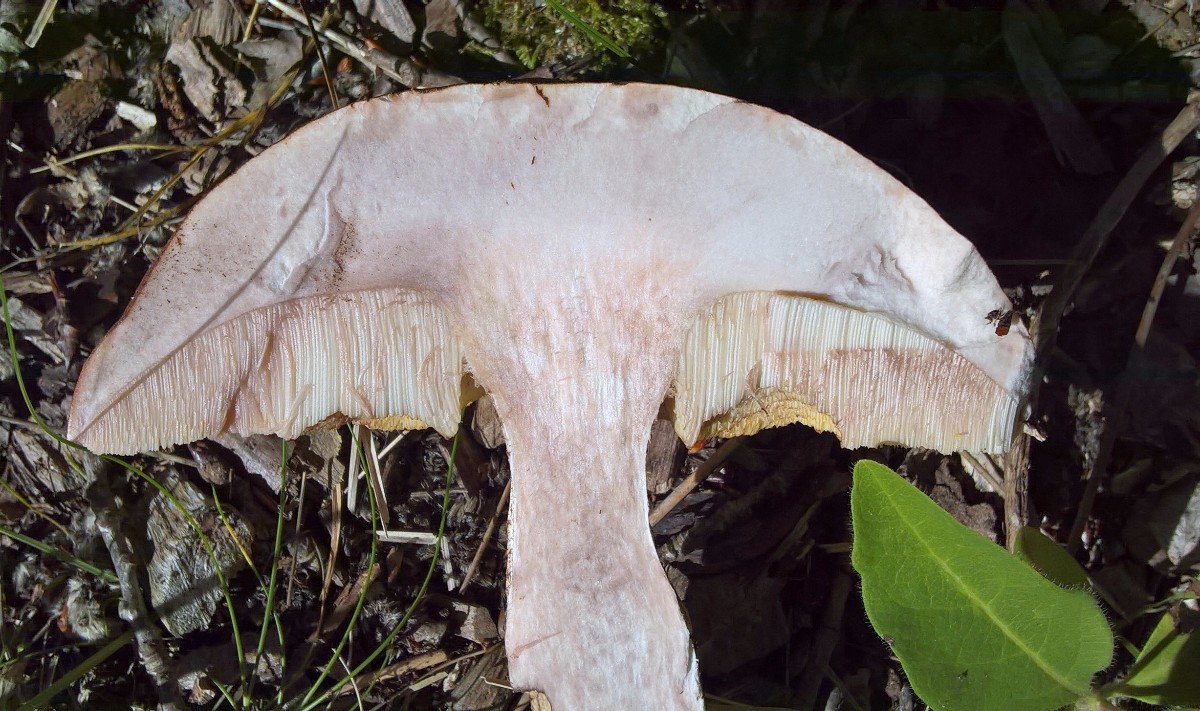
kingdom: Fungi
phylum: Basidiomycota
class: Agaricomycetes
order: Boletales
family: Boletaceae
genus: Leccinum
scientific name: Leccinum aurantiacum
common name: rustrød skælrørhat
